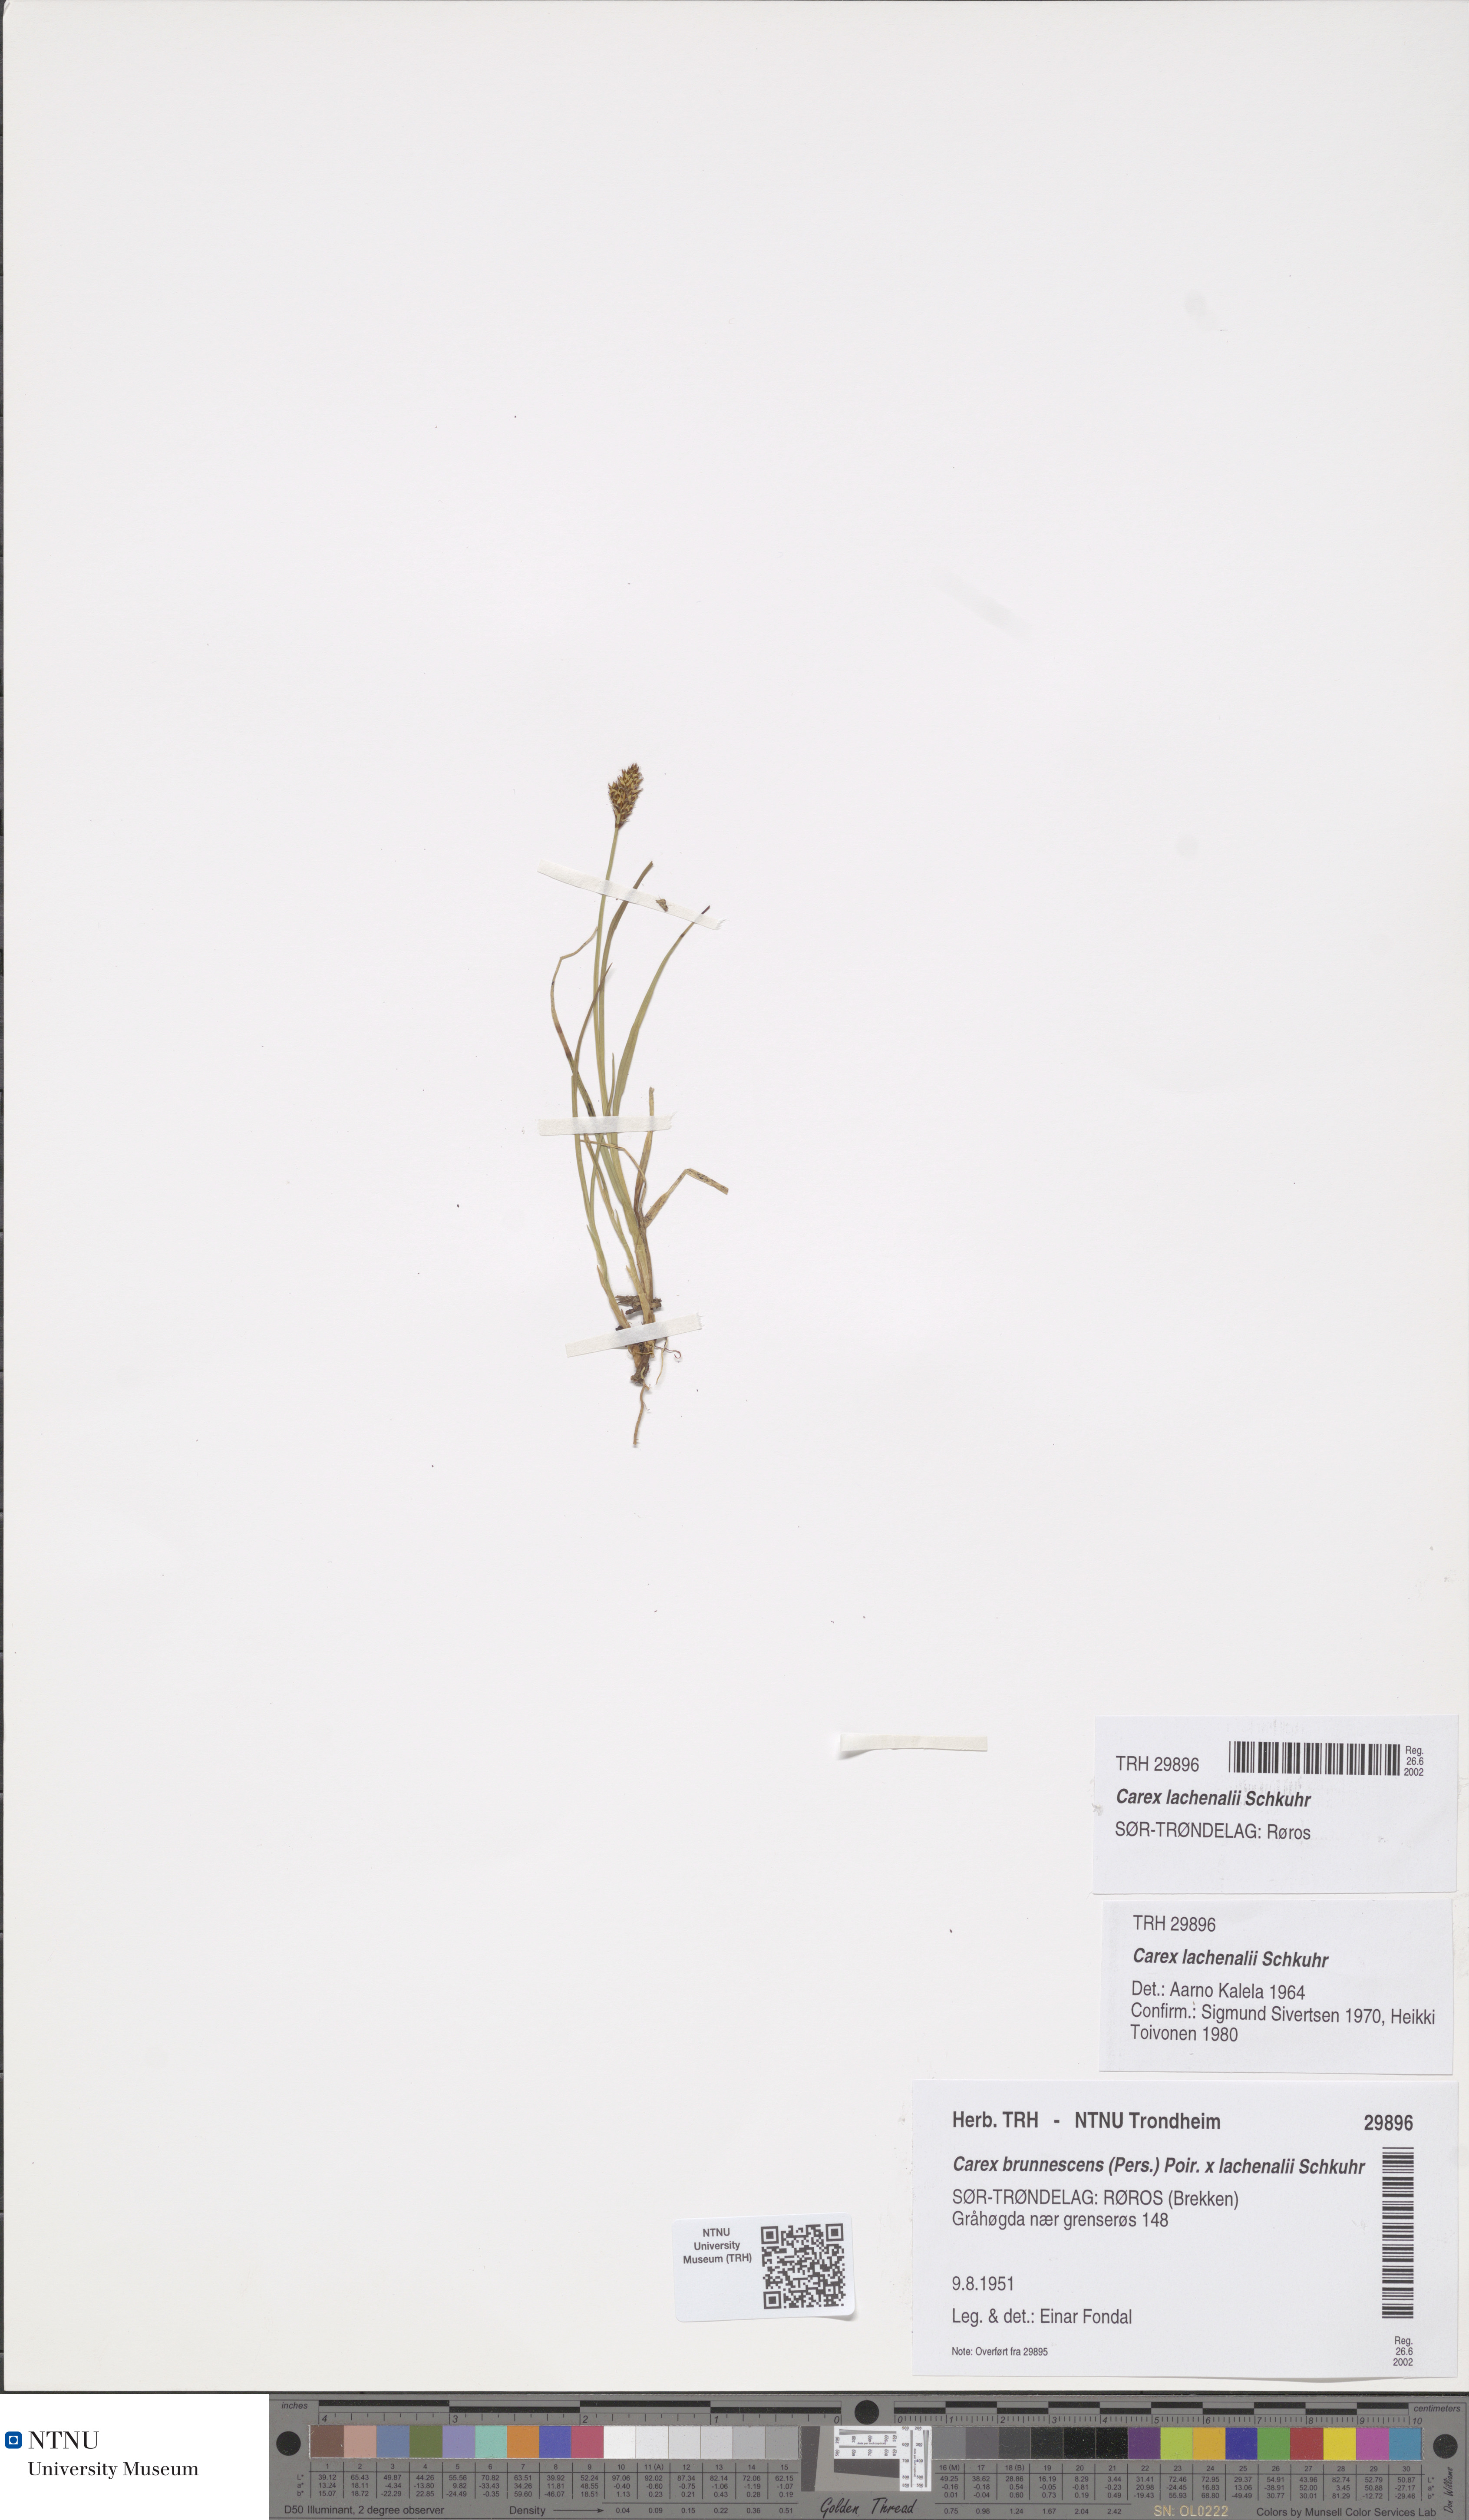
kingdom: Plantae
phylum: Tracheophyta
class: Liliopsida
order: Poales
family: Cyperaceae
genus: Carex
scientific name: Carex lachenalii
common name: Hare's-foot sedge
